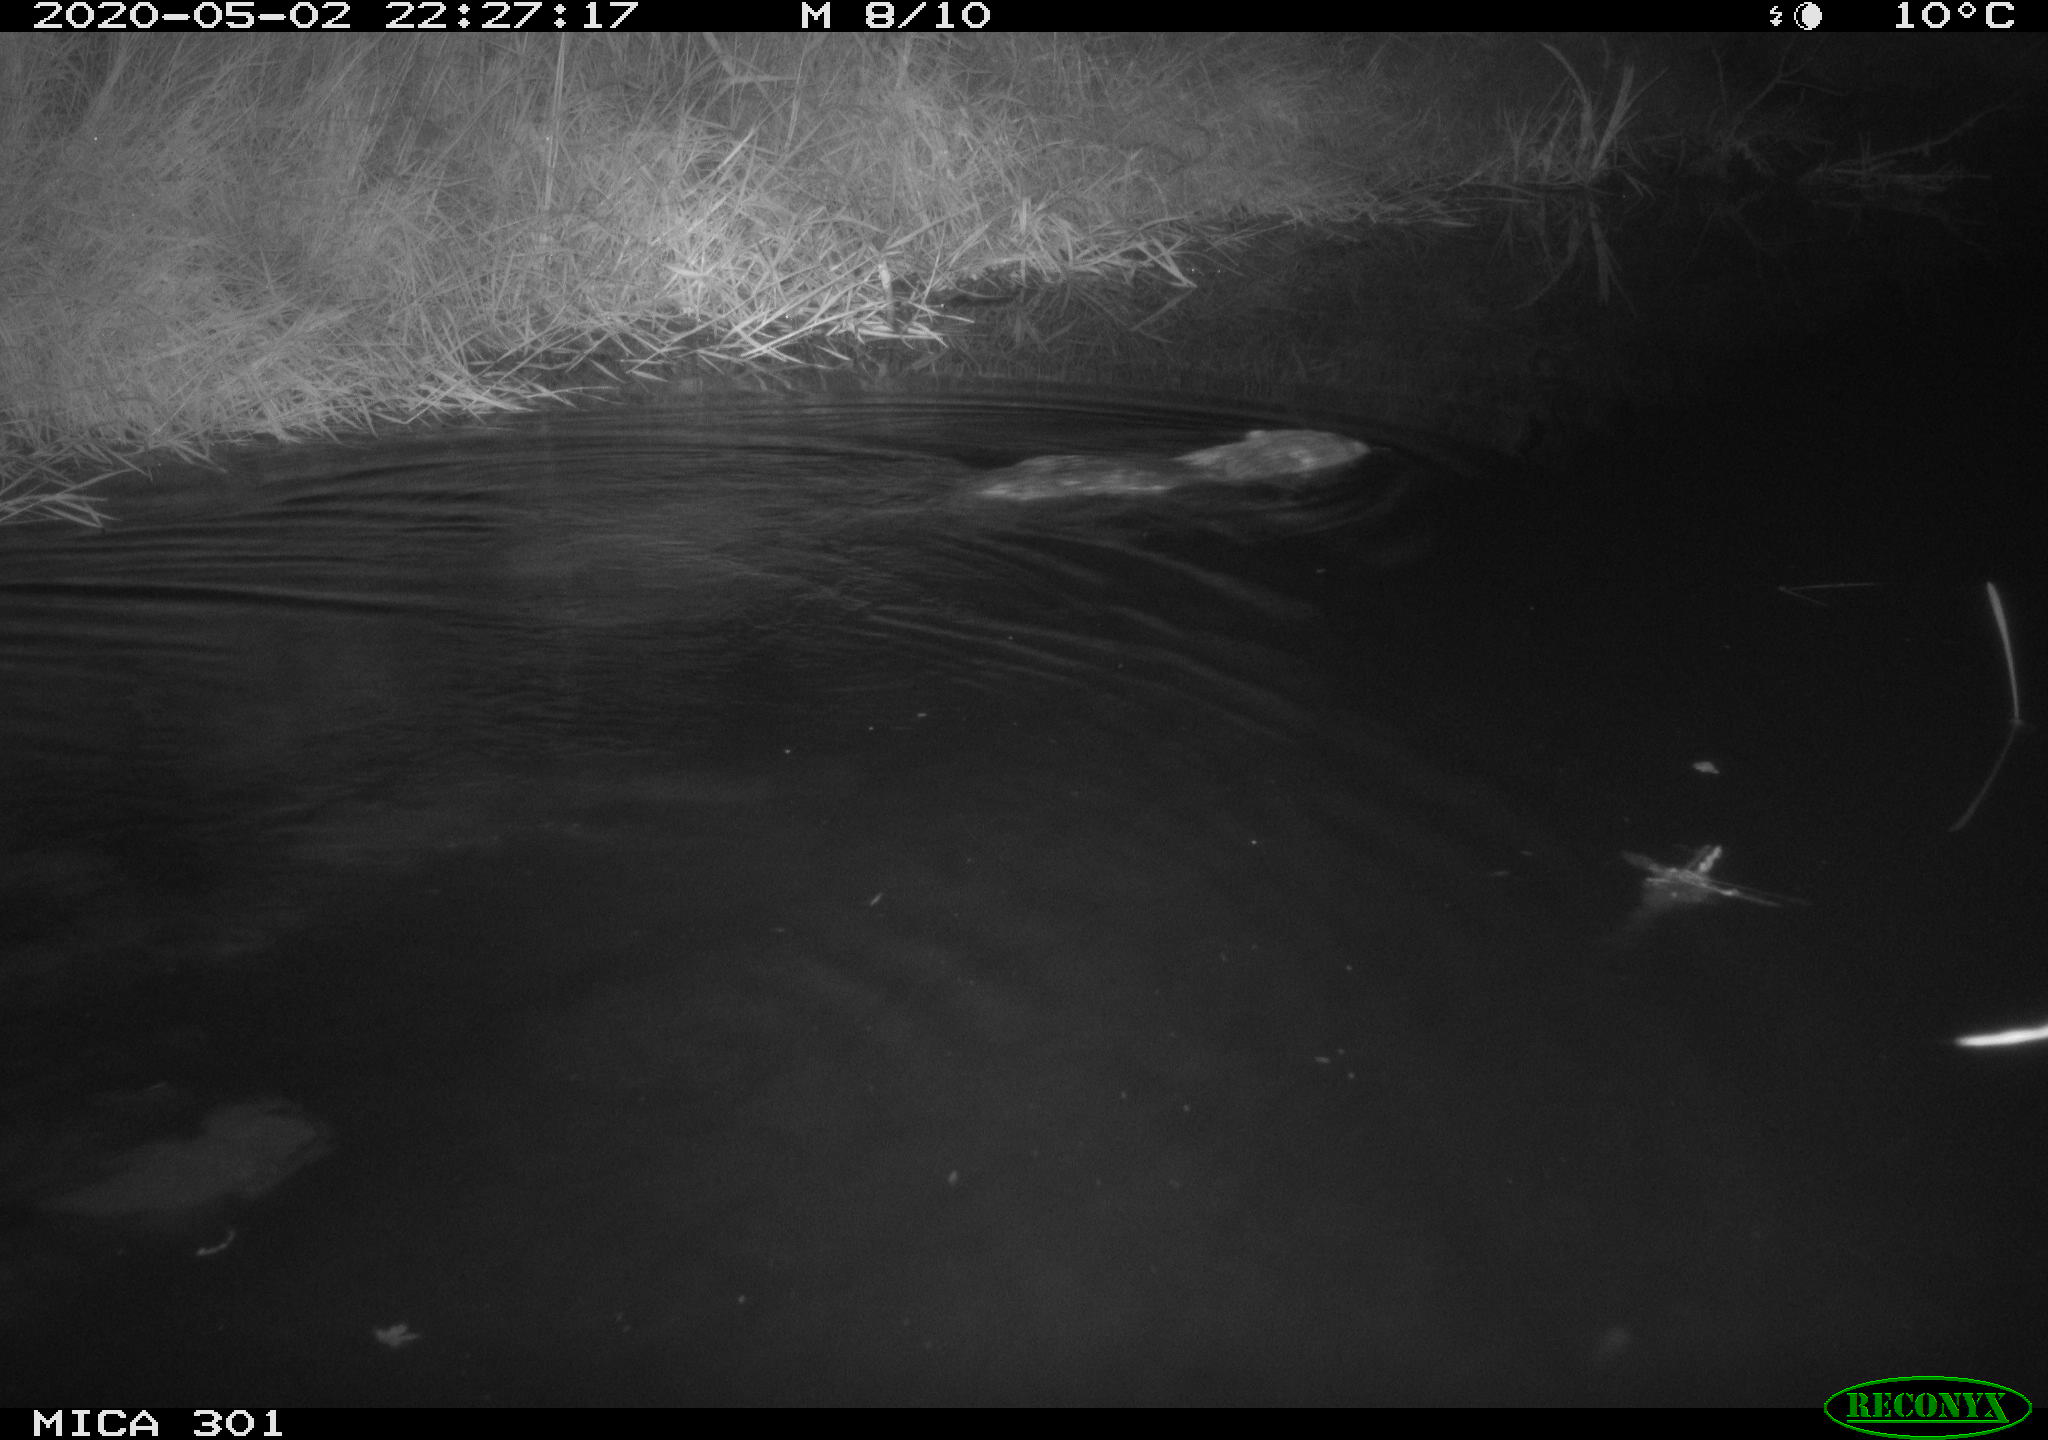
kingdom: Animalia
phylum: Chordata
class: Mammalia
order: Rodentia
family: Castoridae
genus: Castor
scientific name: Castor fiber
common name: Eurasian beaver
